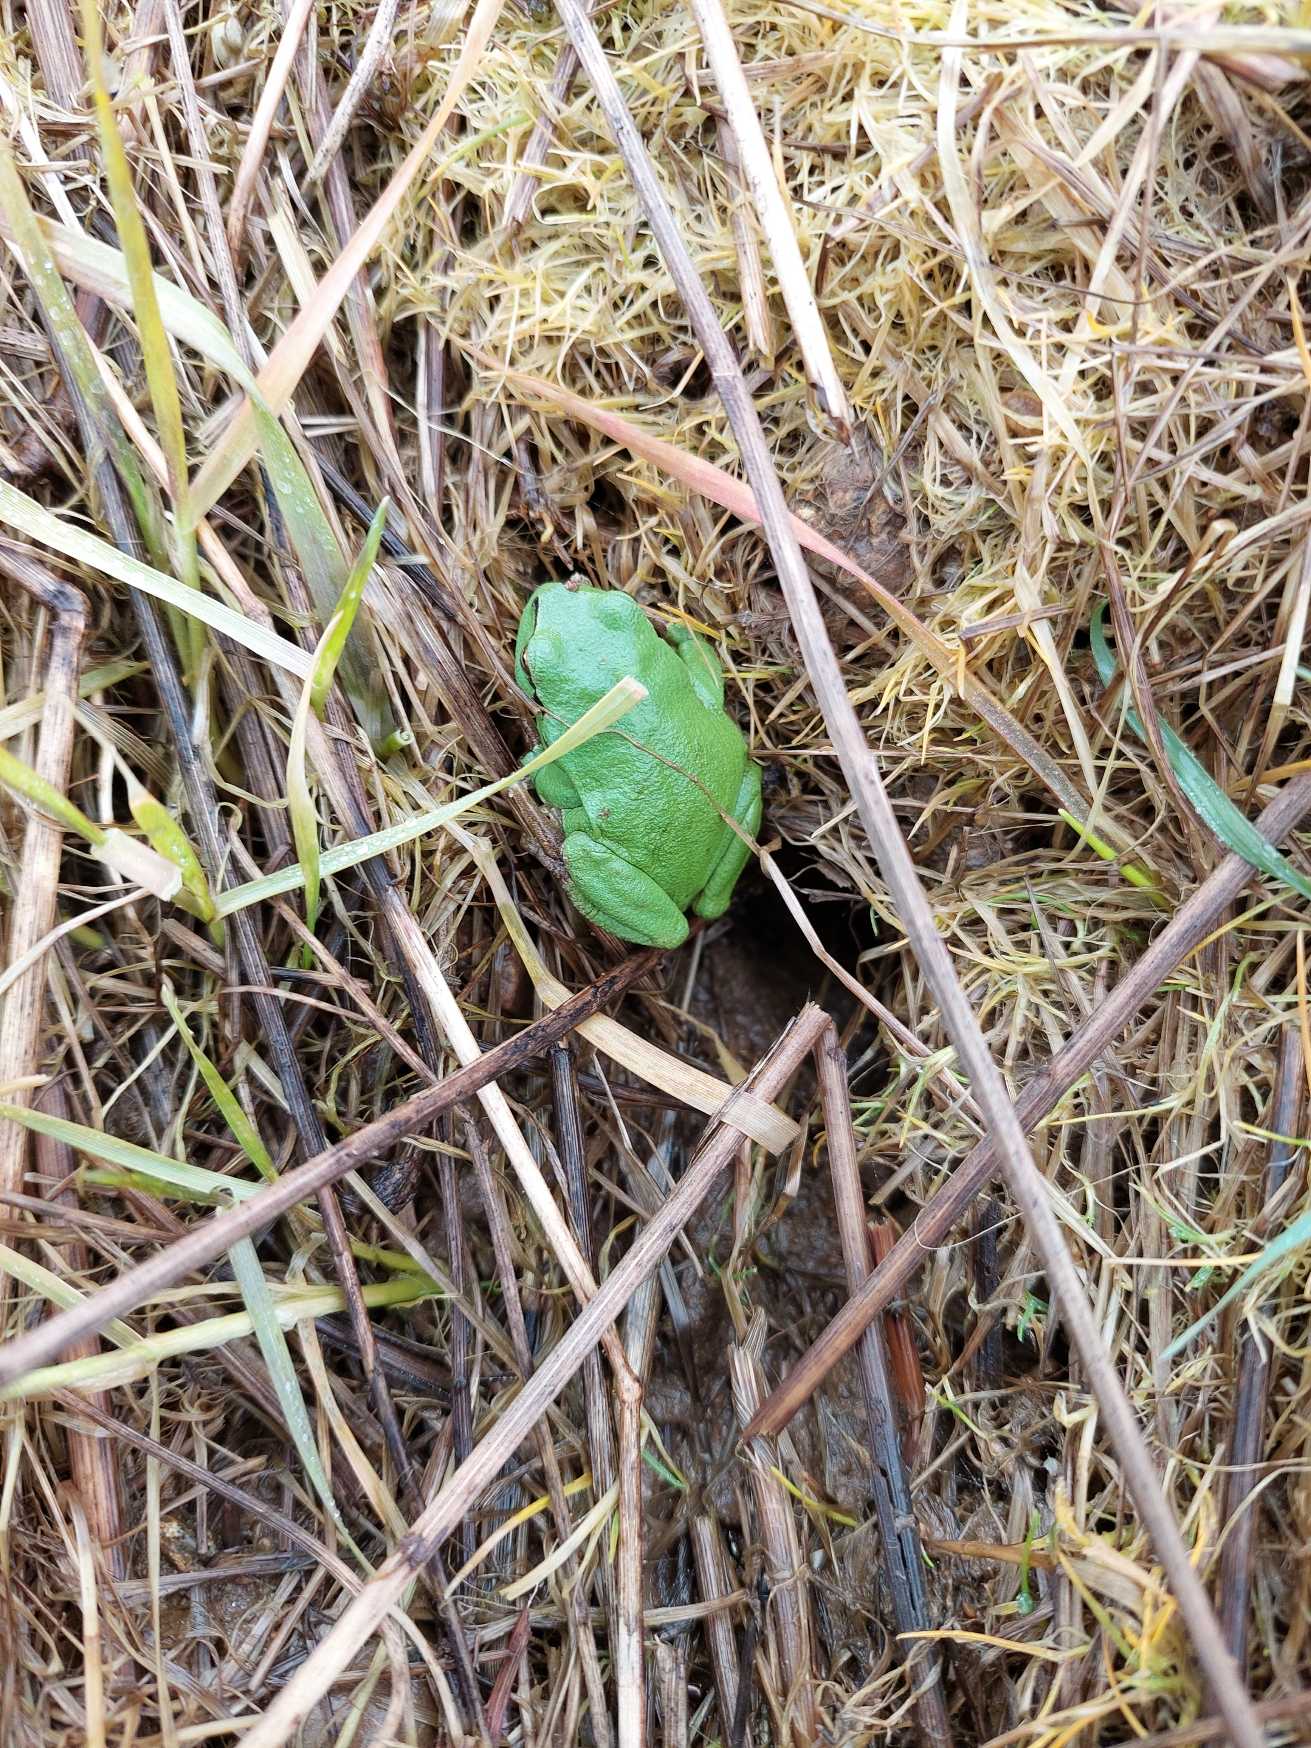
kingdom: Animalia
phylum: Chordata
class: Amphibia
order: Anura
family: Hylidae
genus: Hyla
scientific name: Hyla arborea
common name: Løvfrø
